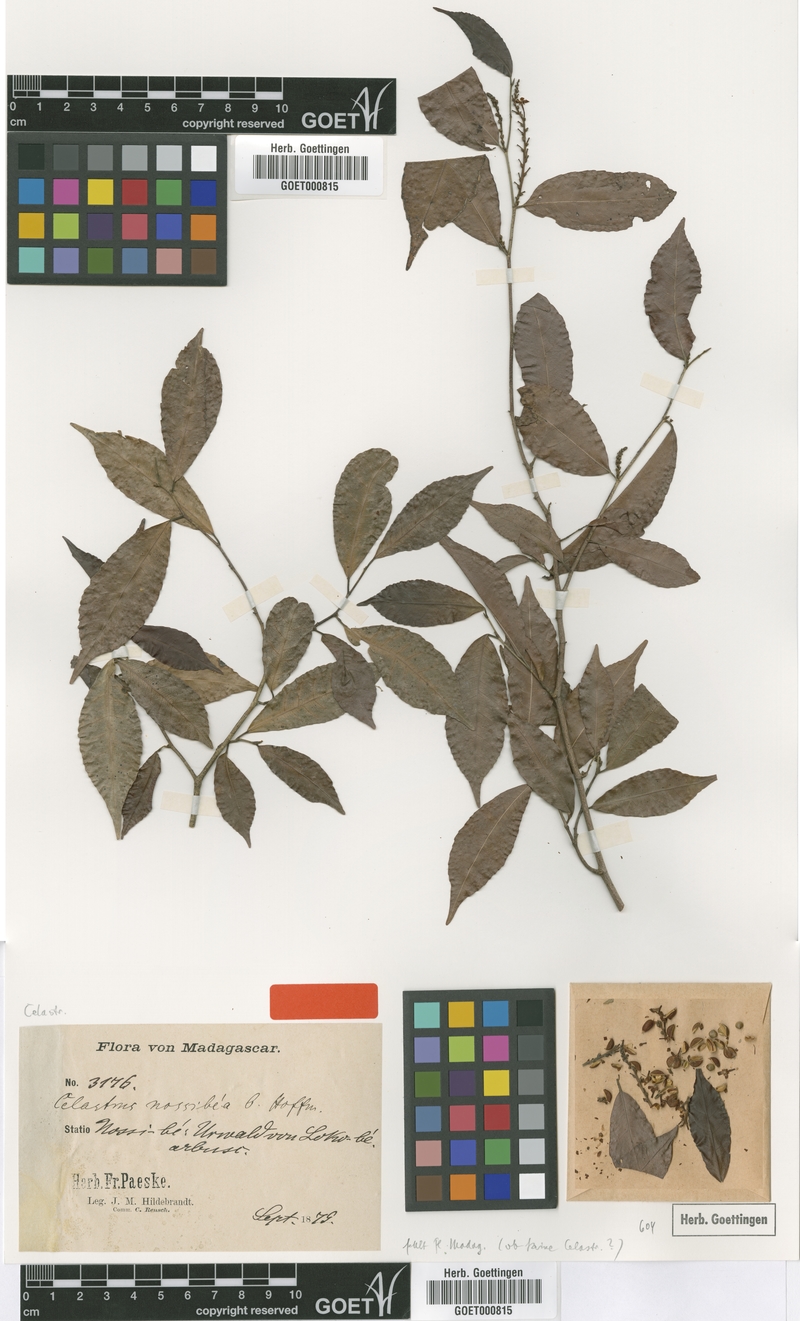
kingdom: Plantae
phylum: Tracheophyta
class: Magnoliopsida
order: Celastrales
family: Celastraceae
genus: Celastrus
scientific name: Celastrus nossibaeus
